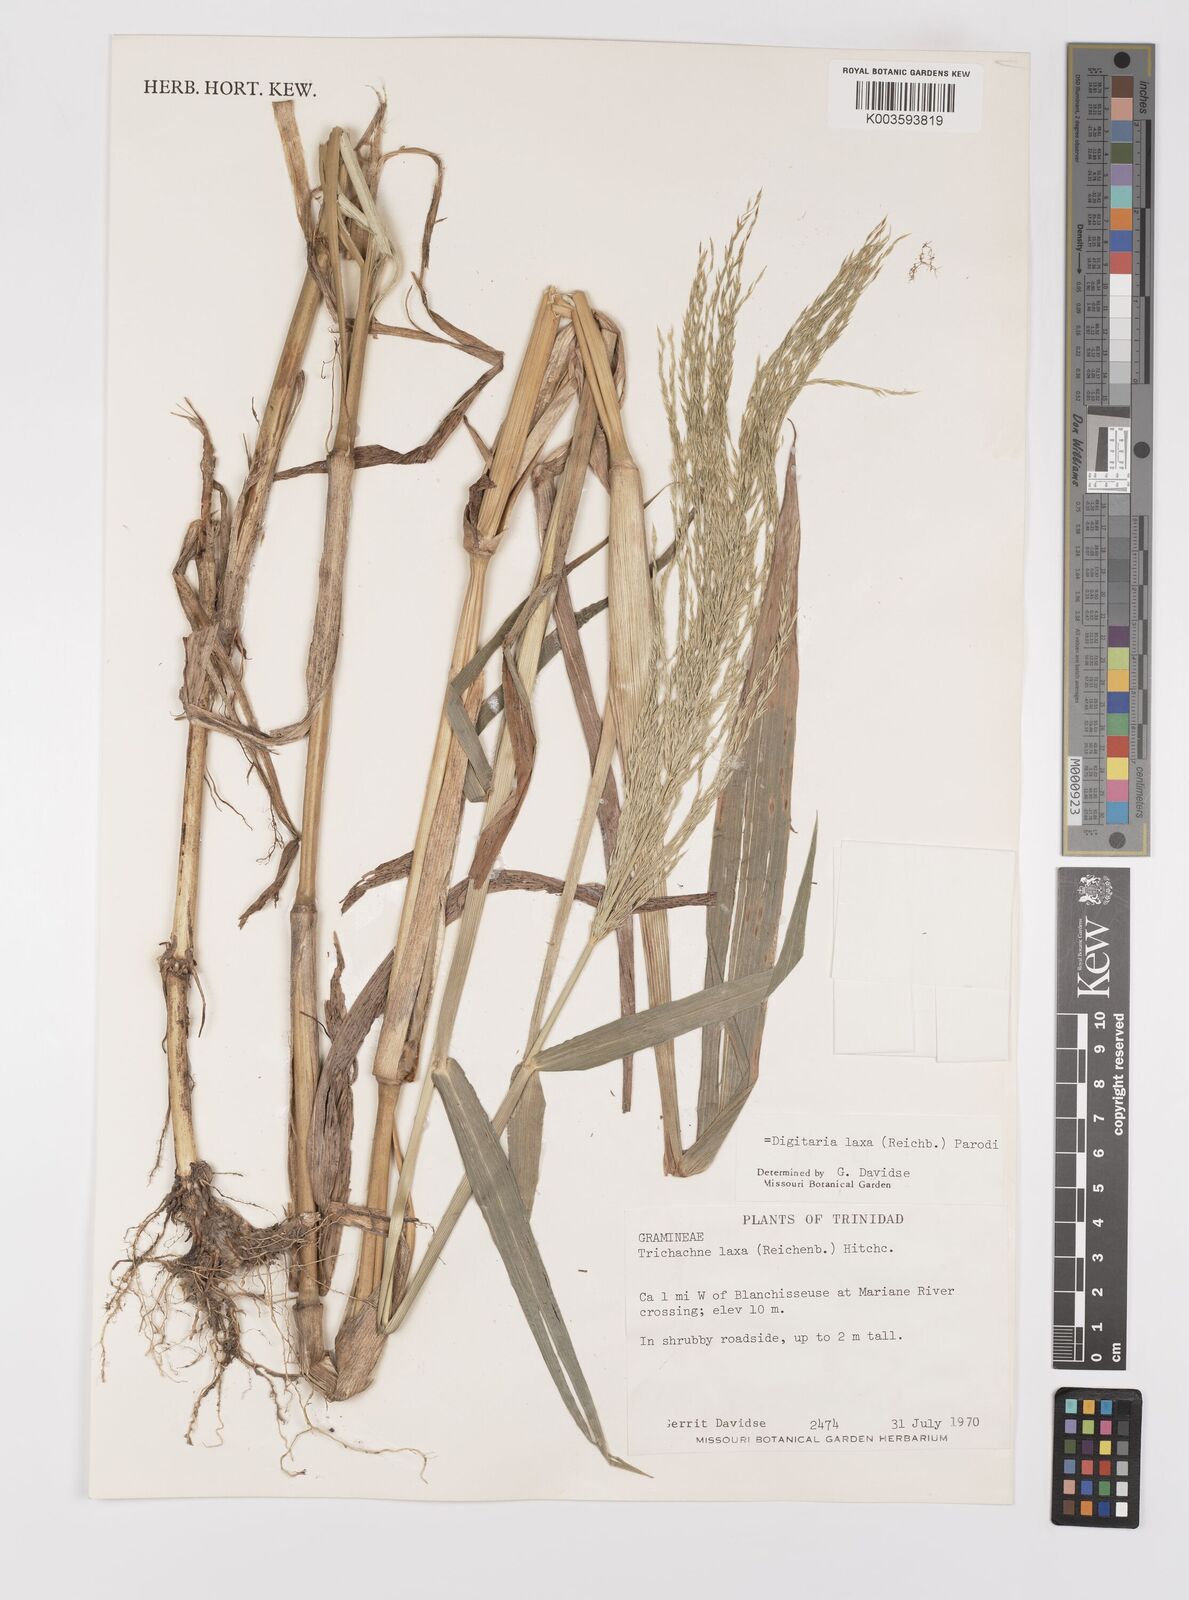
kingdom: Plantae
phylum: Tracheophyta
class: Liliopsida
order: Poales
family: Poaceae
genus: Digitaria
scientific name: Digitaria laxa
